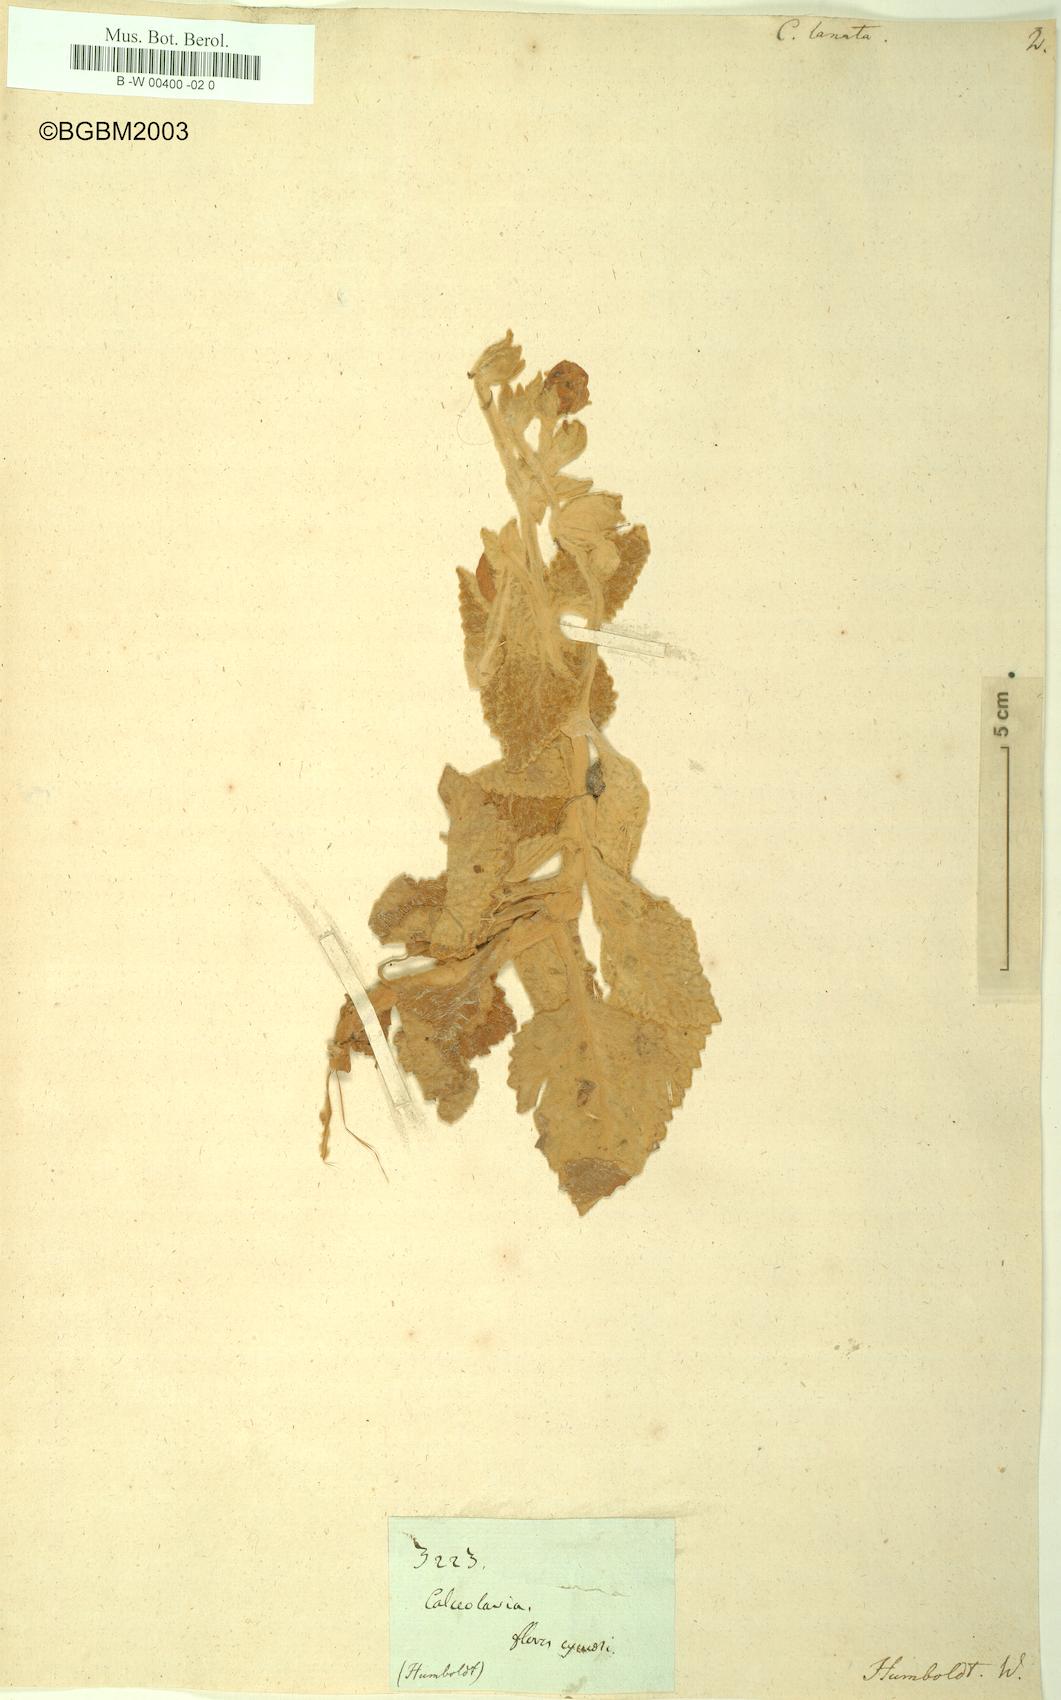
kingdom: Plantae
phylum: Tracheophyta
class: Magnoliopsida
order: Lamiales
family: Calceolariaceae
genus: Calceolaria
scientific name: Calceolaria lanata
